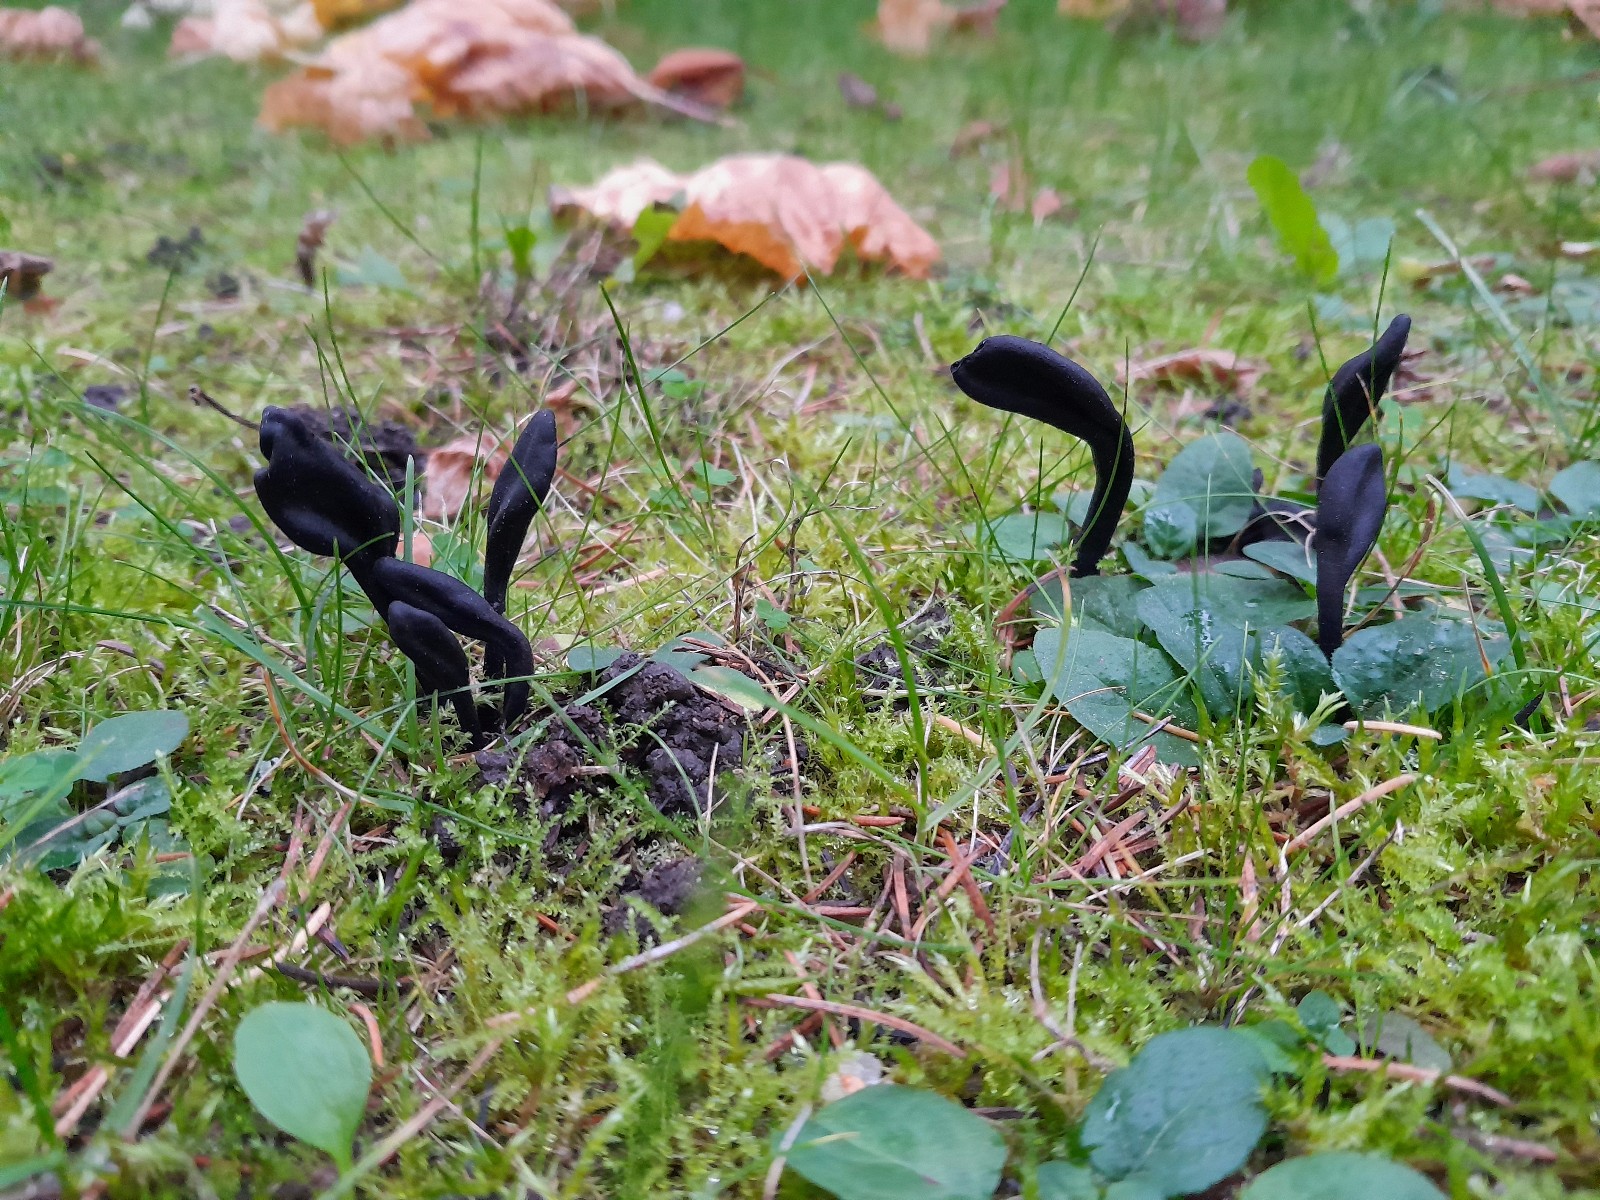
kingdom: Fungi
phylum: Ascomycota
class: Geoglossomycetes
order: Geoglossales
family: Geoglossaceae
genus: Trichoglossum
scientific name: Trichoglossum hirsutum
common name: håret jordtunge
